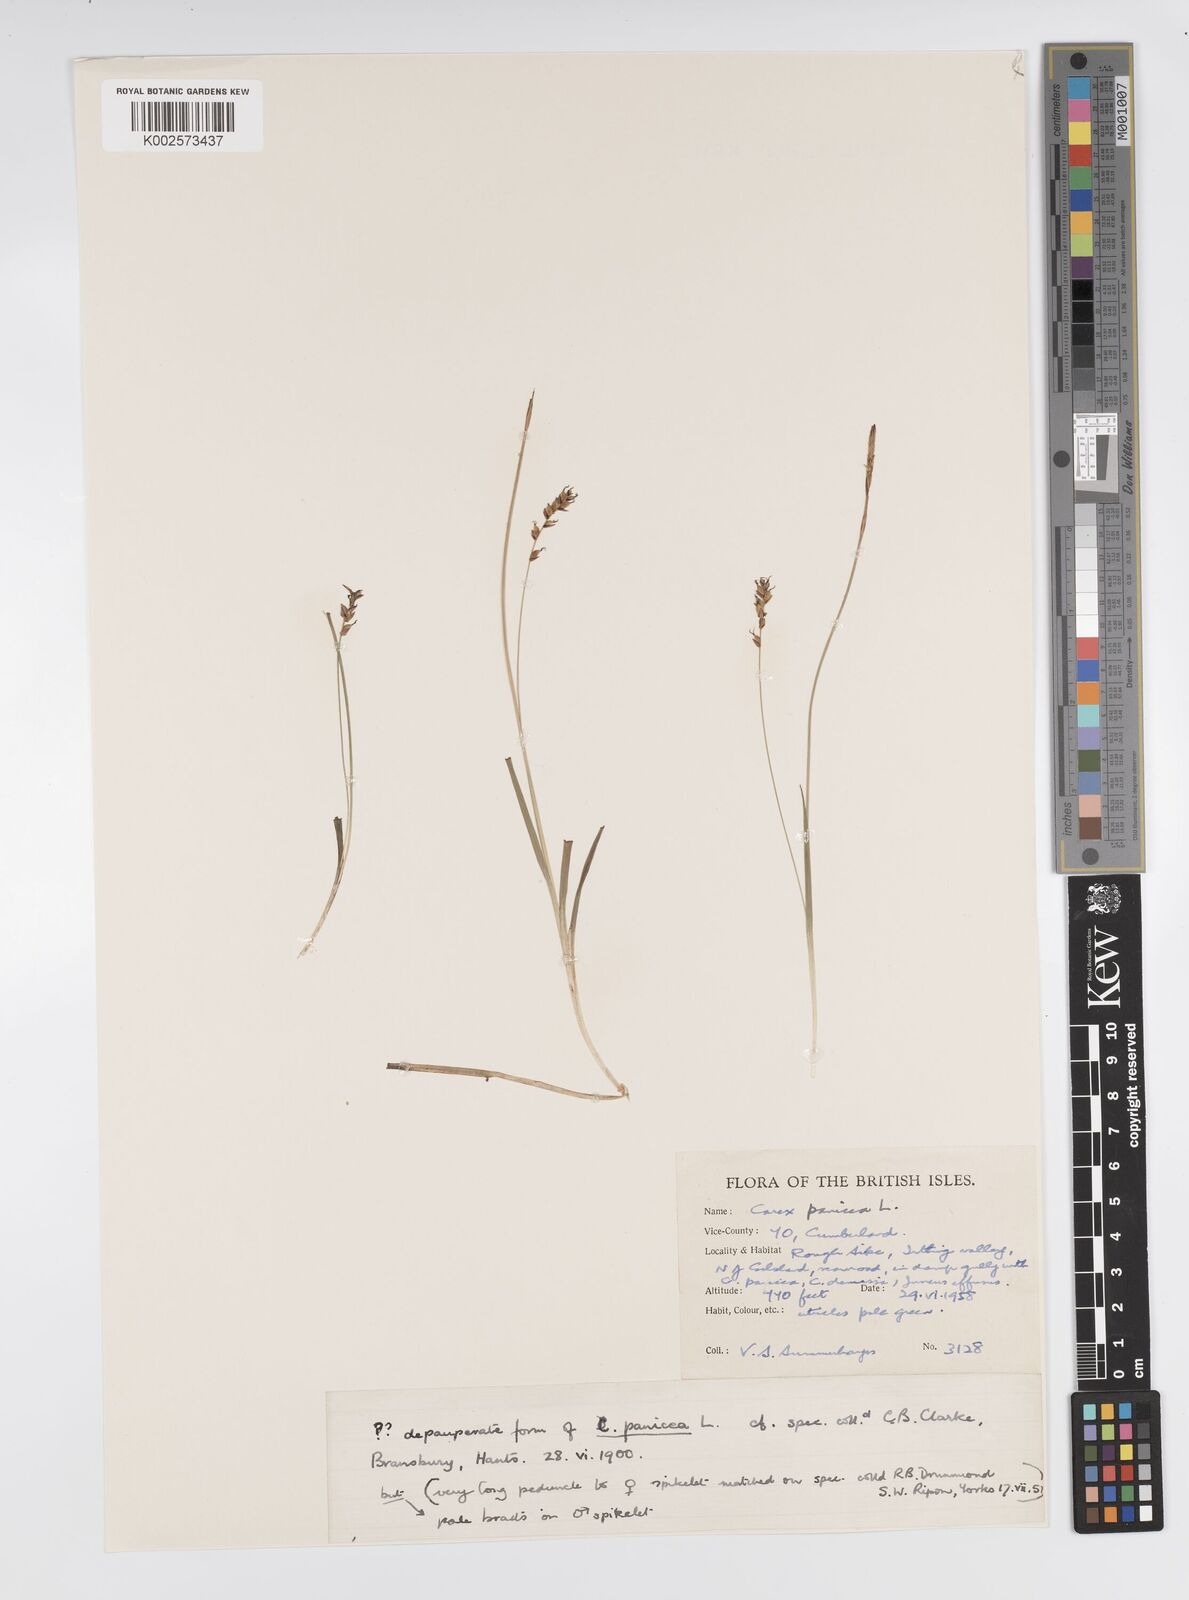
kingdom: Plantae
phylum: Tracheophyta
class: Liliopsida
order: Poales
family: Cyperaceae
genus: Carex
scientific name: Carex panicea
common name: Carnation sedge
